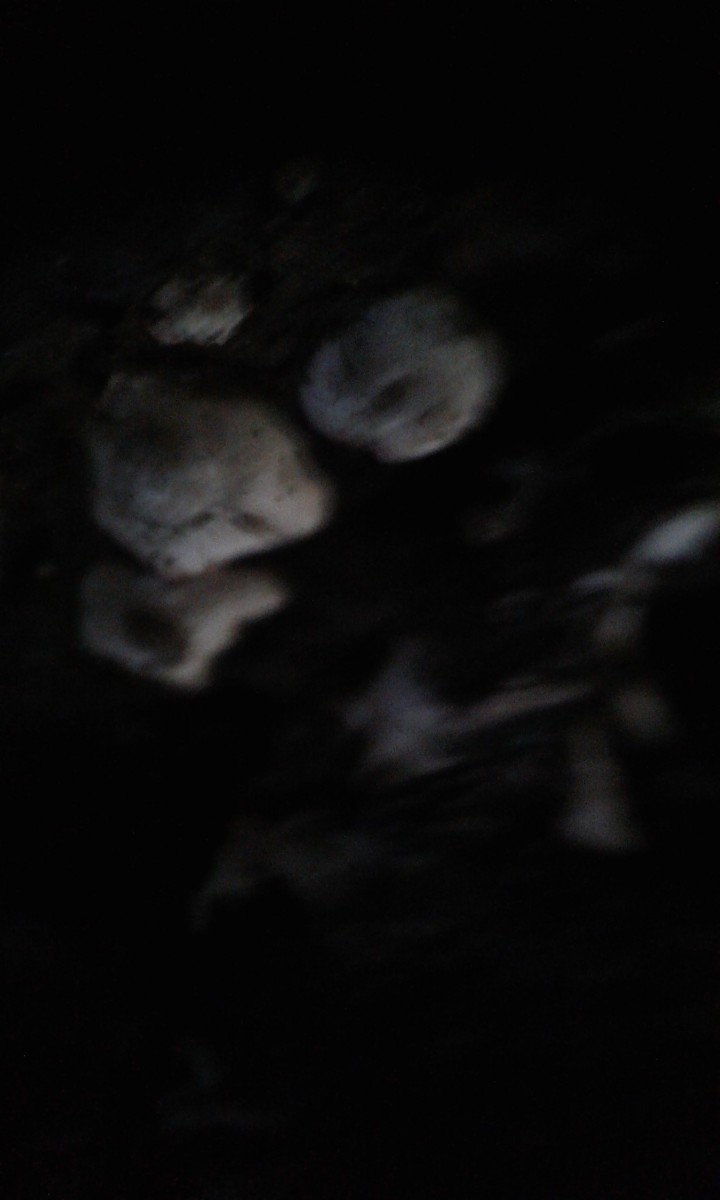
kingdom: Fungi
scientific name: Fungi
